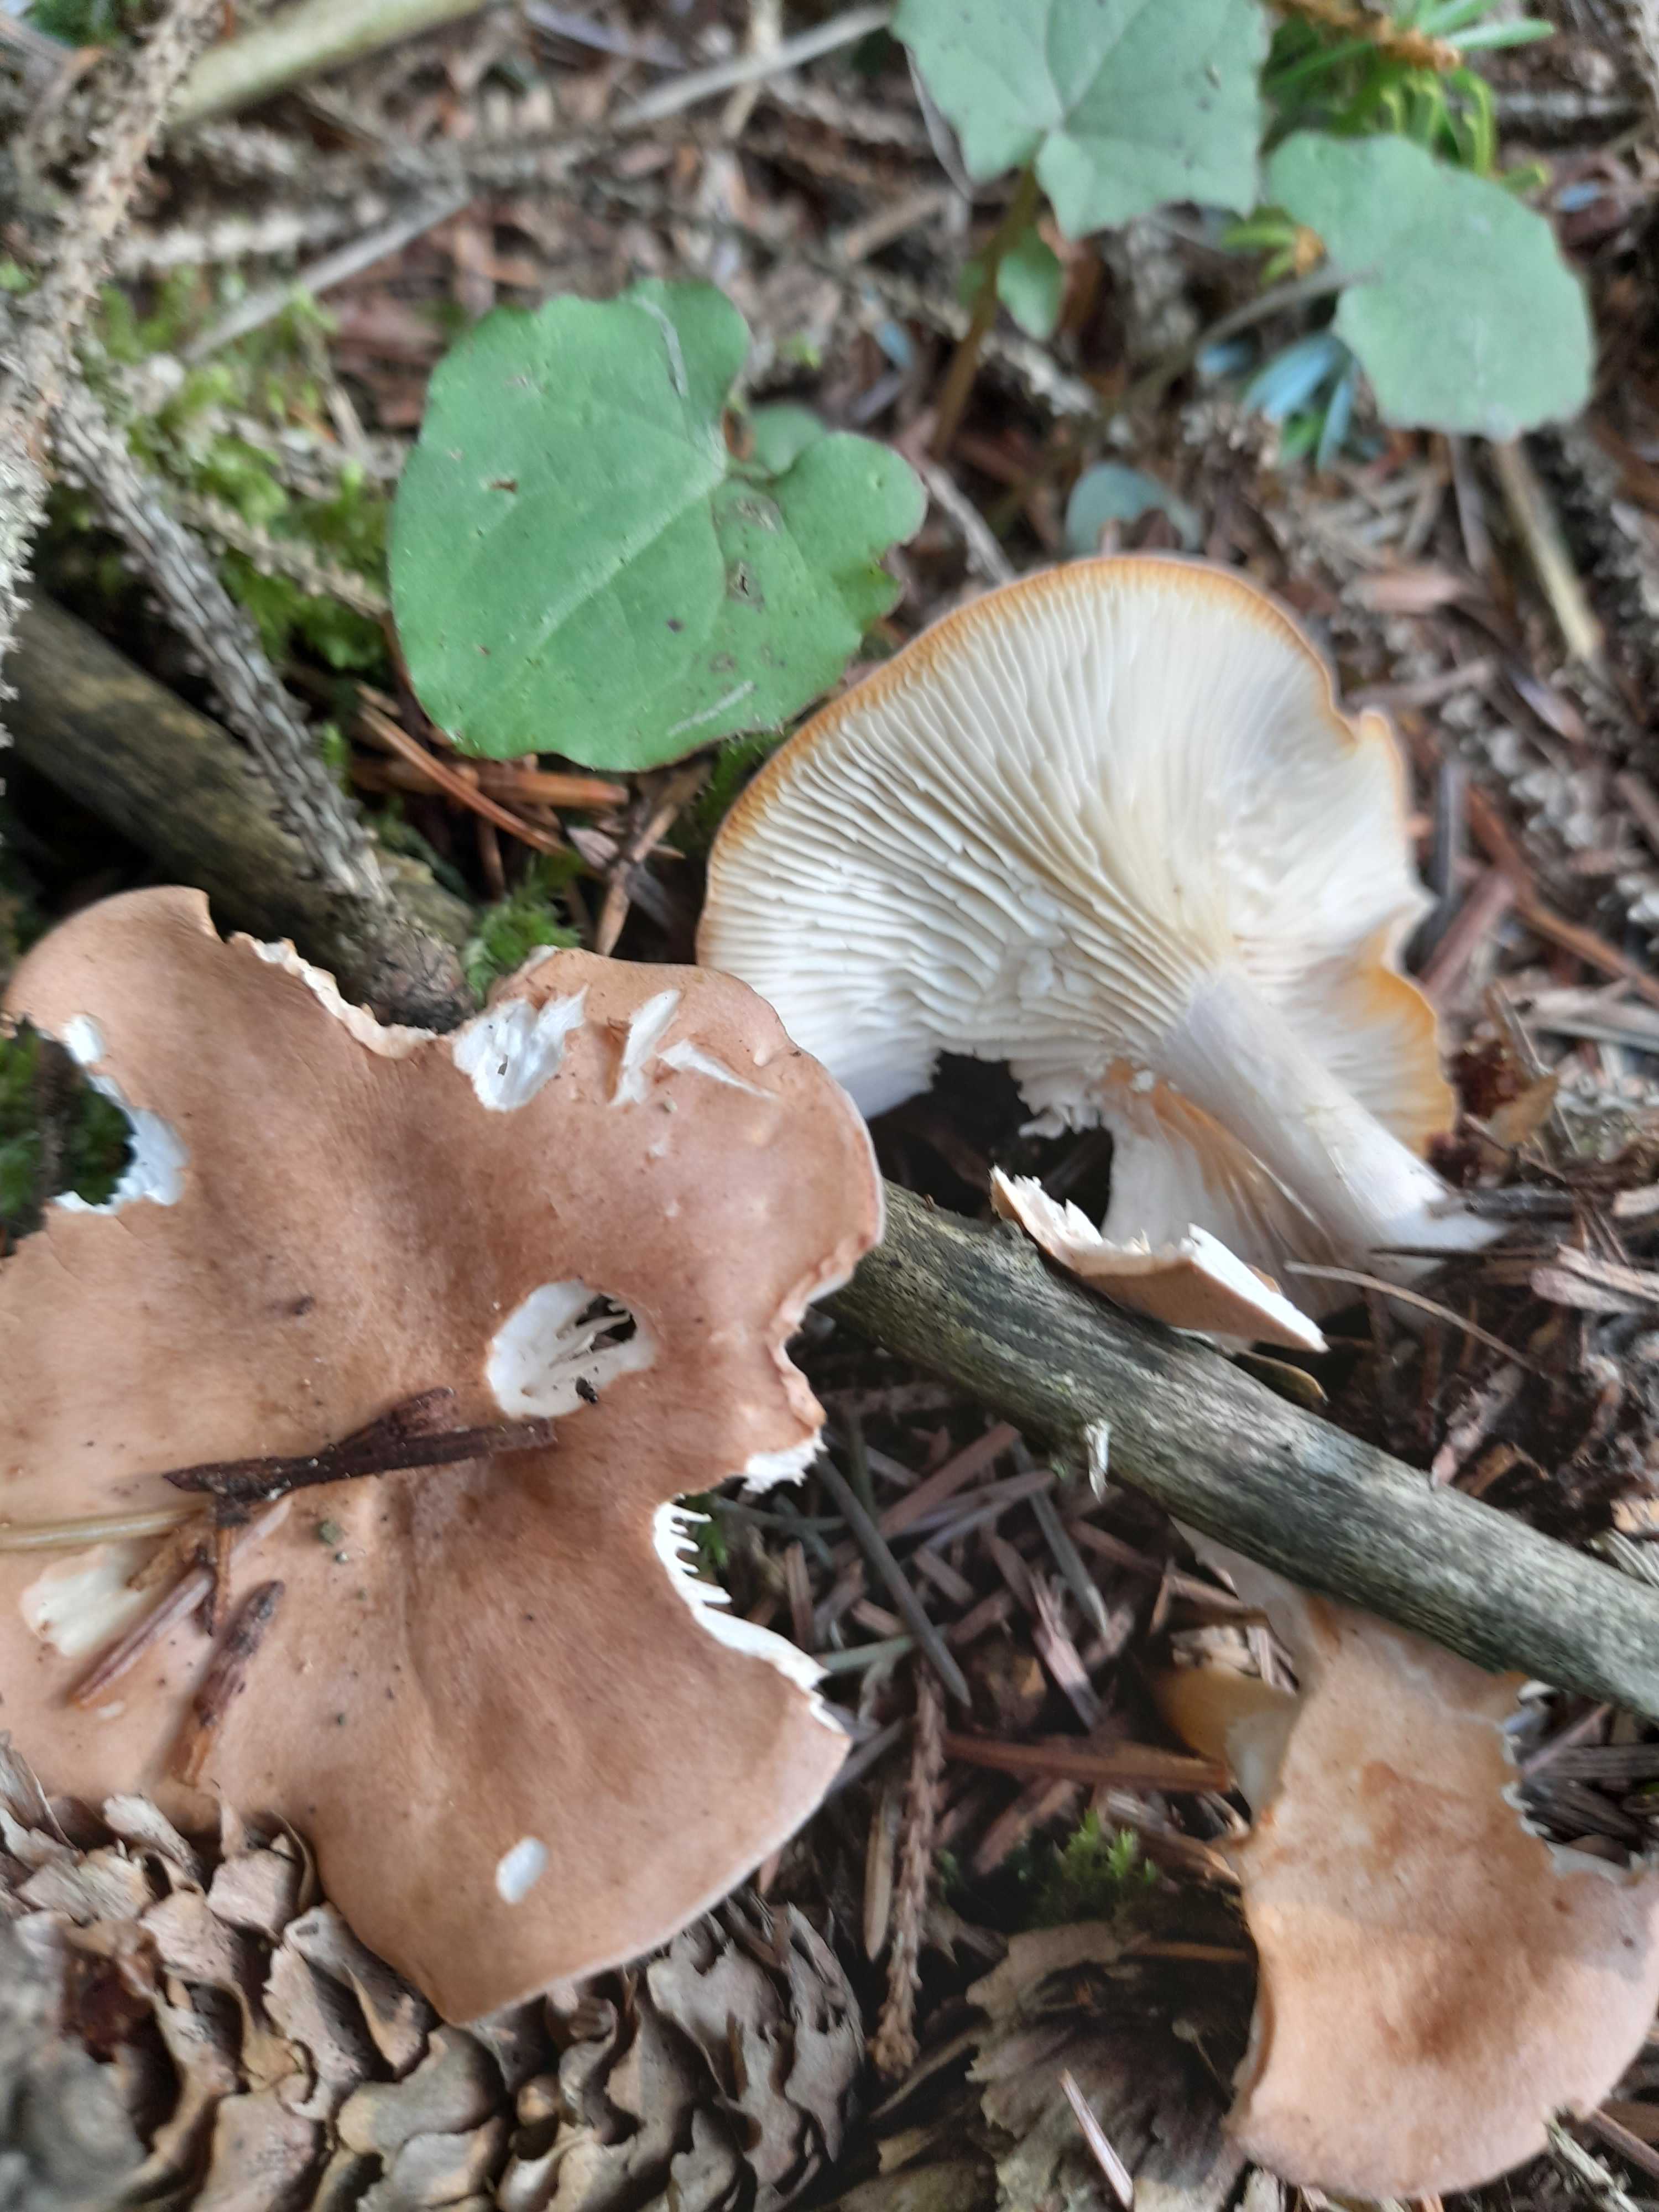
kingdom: Fungi
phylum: Basidiomycota
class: Agaricomycetes
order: Agaricales
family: Tricholomataceae
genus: Infundibulicybe
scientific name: Infundibulicybe
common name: tragthat
